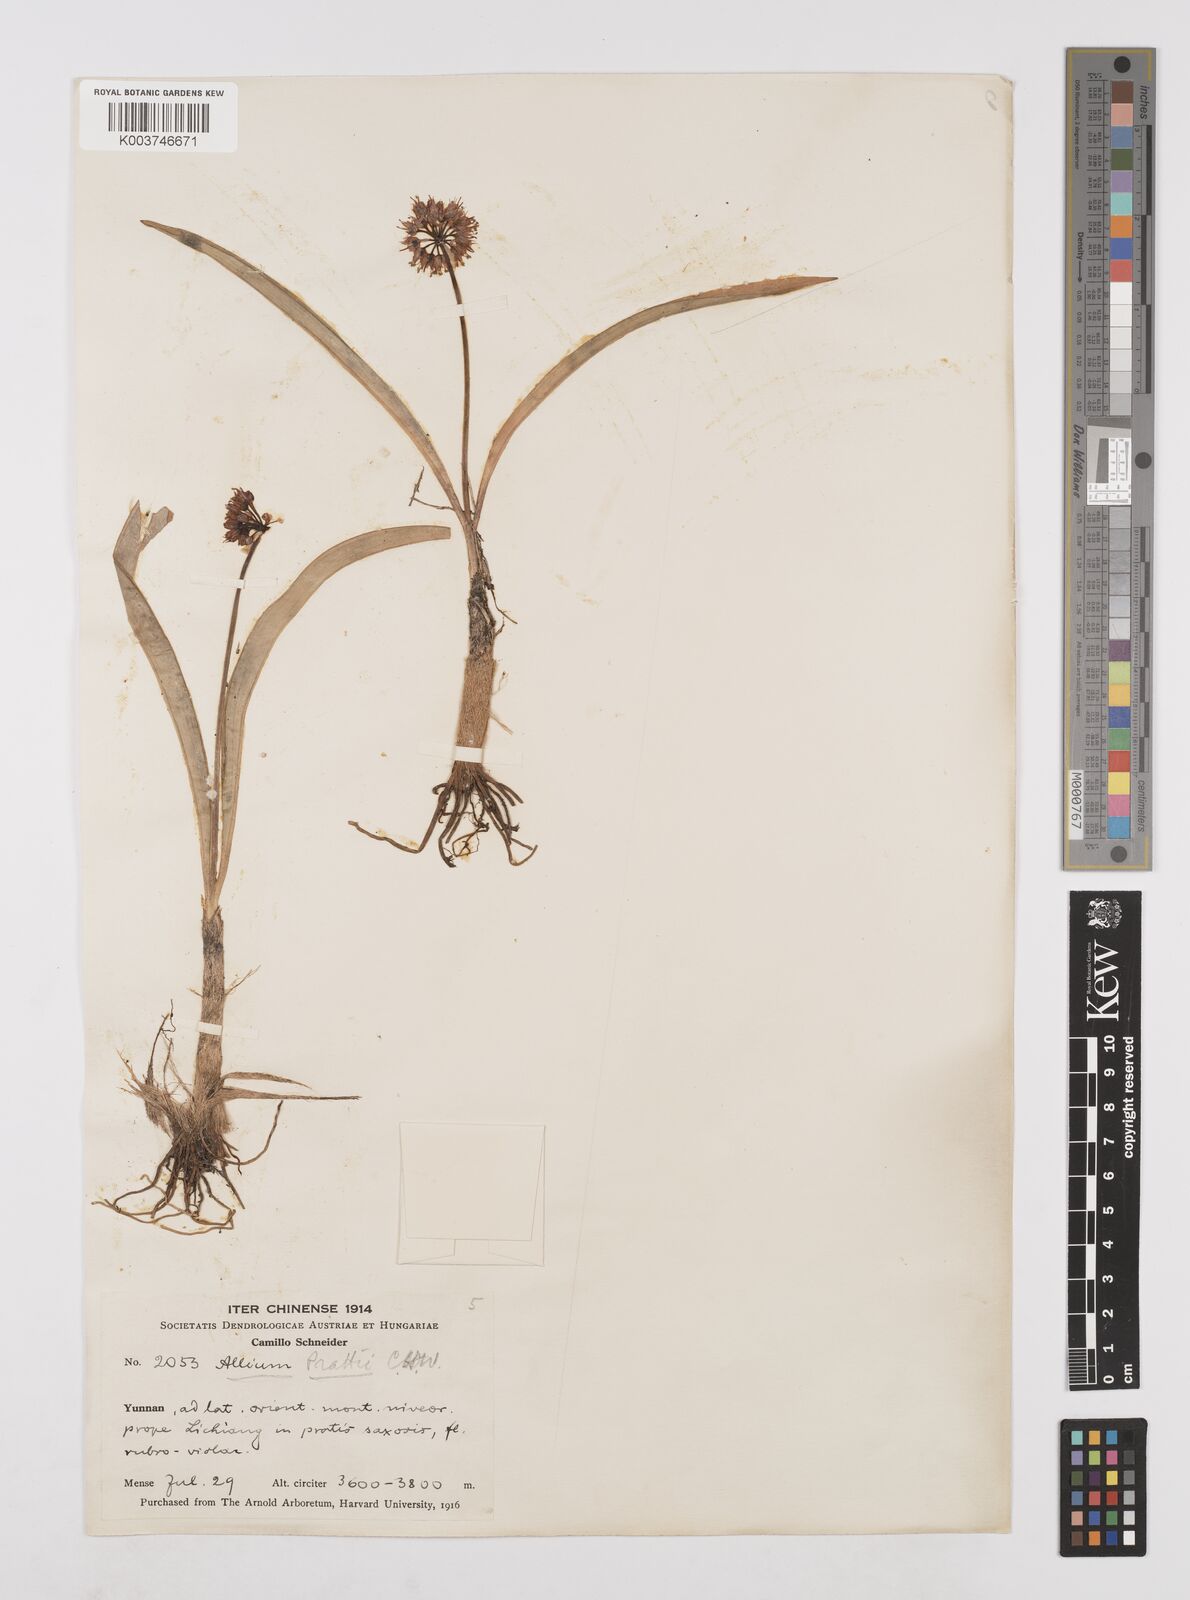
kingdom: Plantae
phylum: Tracheophyta
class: Liliopsida
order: Asparagales
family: Amaryllidaceae
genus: Allium
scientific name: Allium prattii
